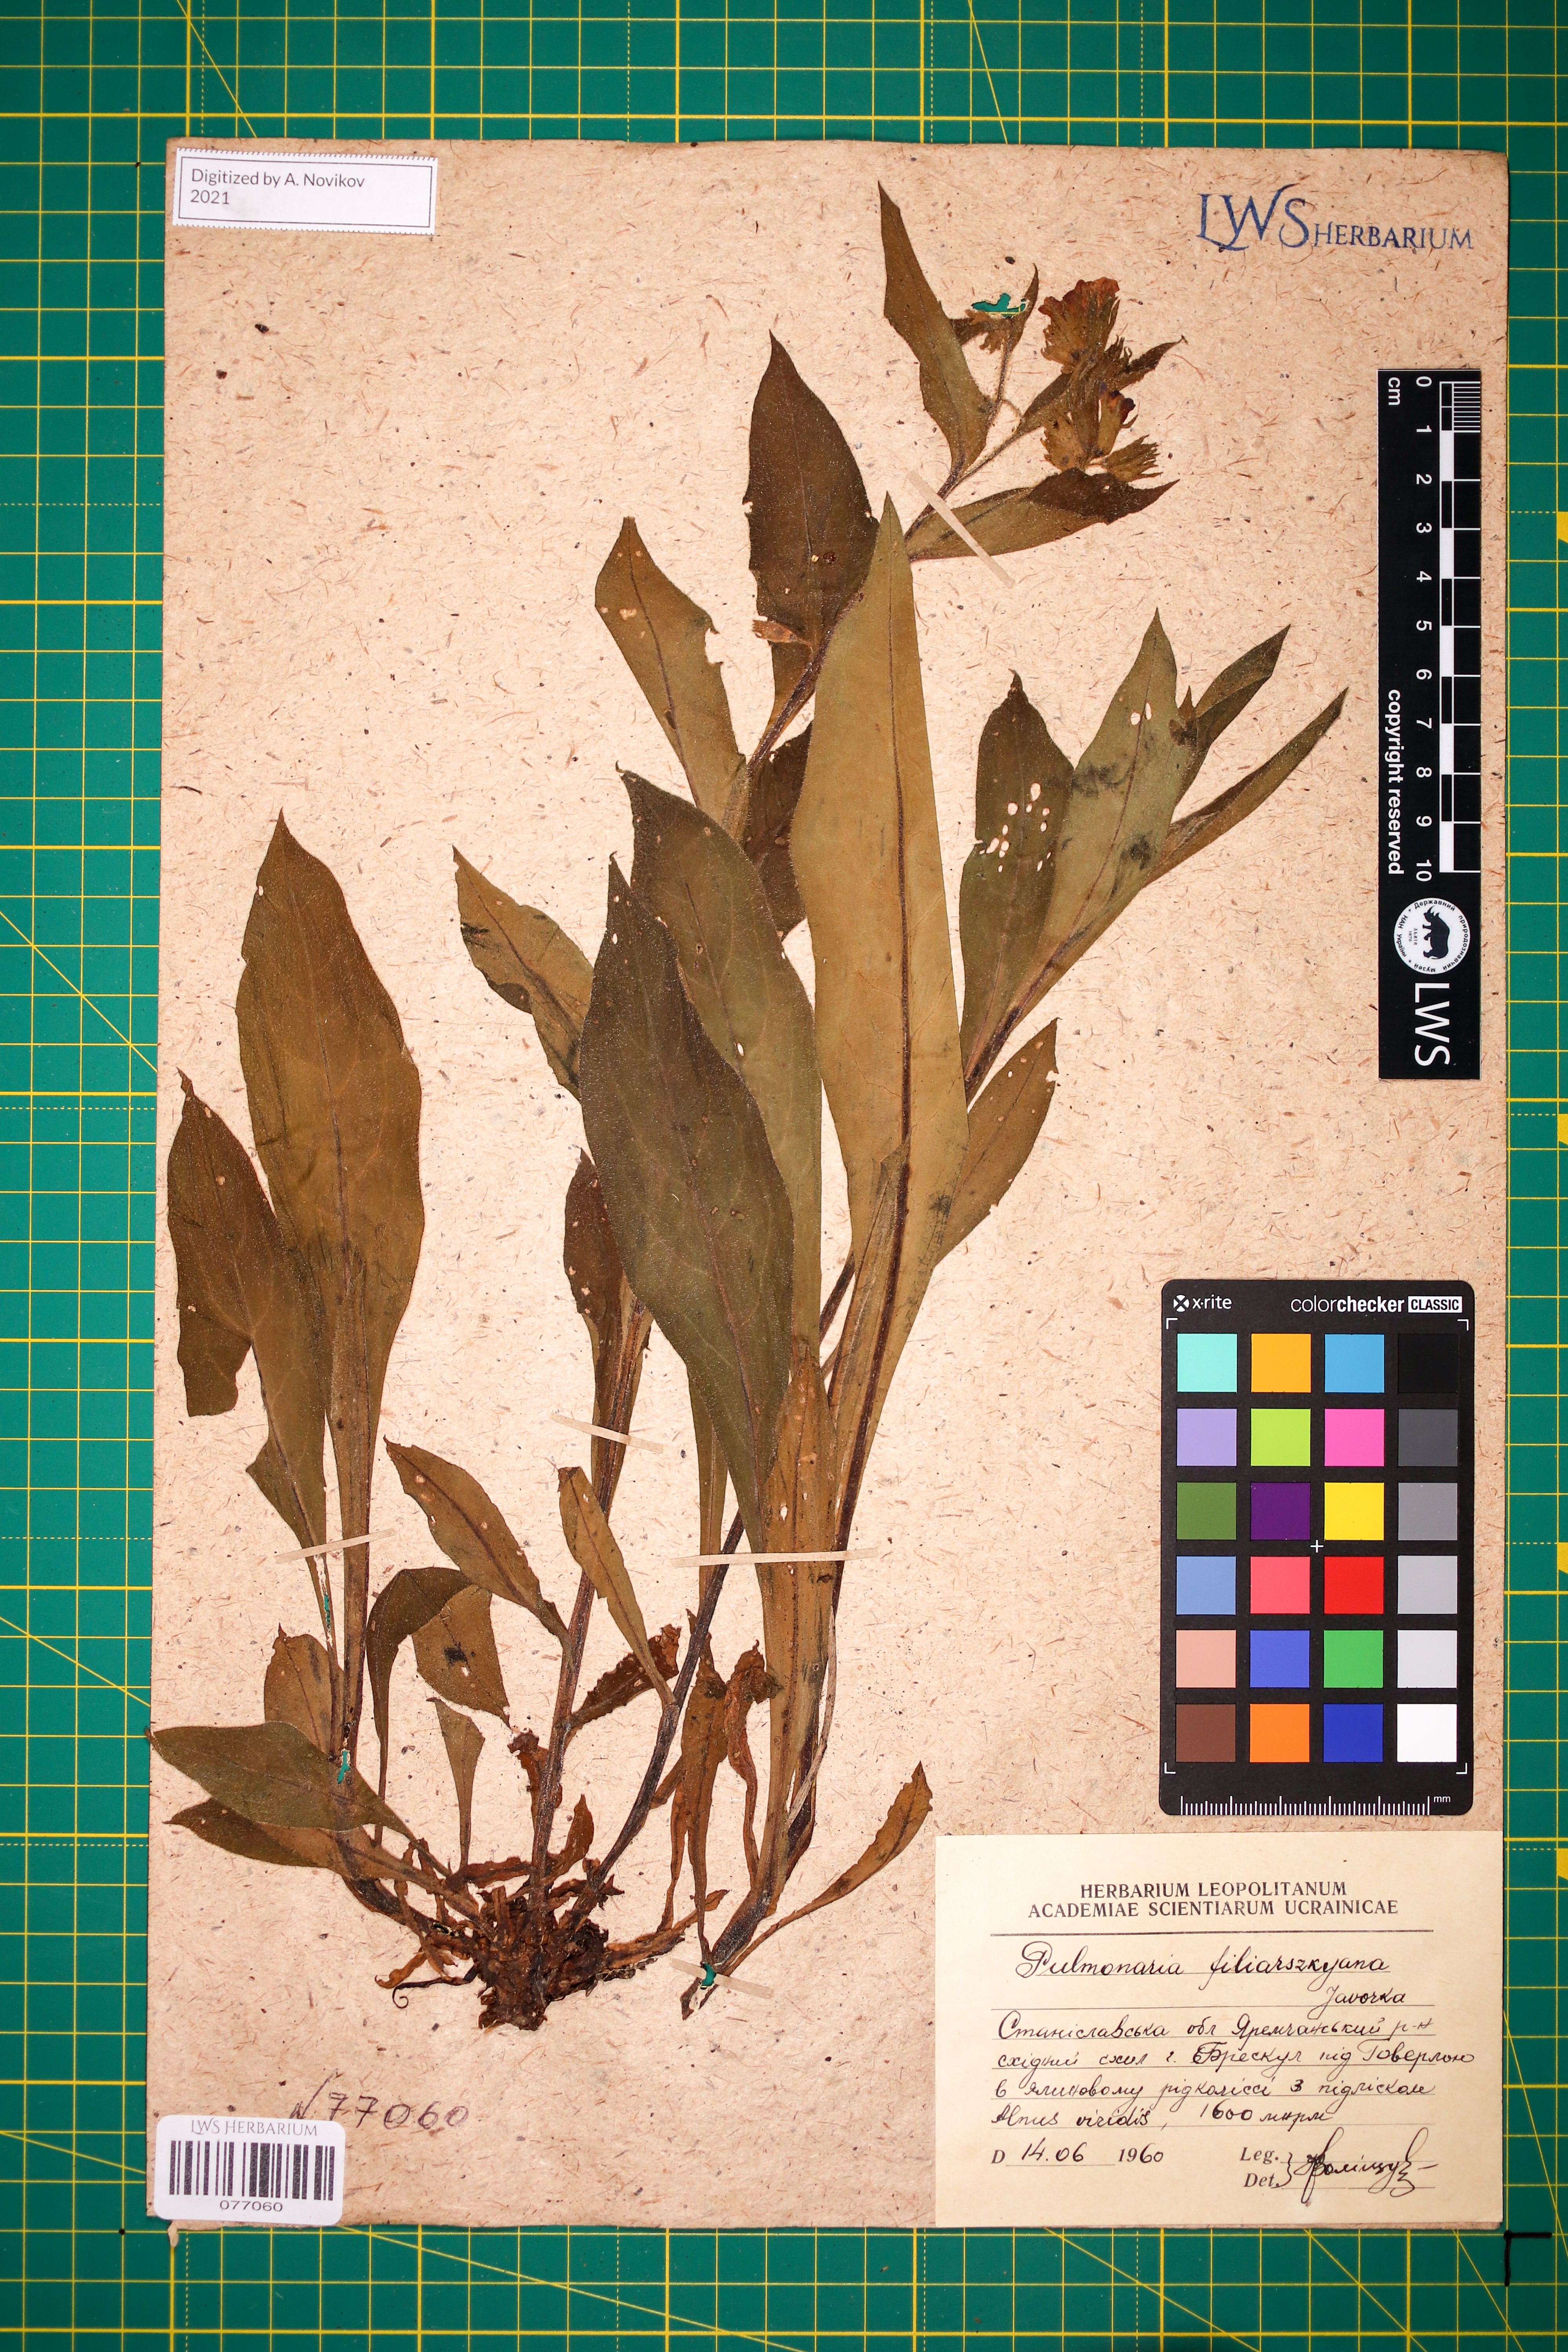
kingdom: Plantae
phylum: Tracheophyta
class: Magnoliopsida
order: Boraginales
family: Boraginaceae
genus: Pulmonaria
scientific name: Pulmonaria filarszkyana
